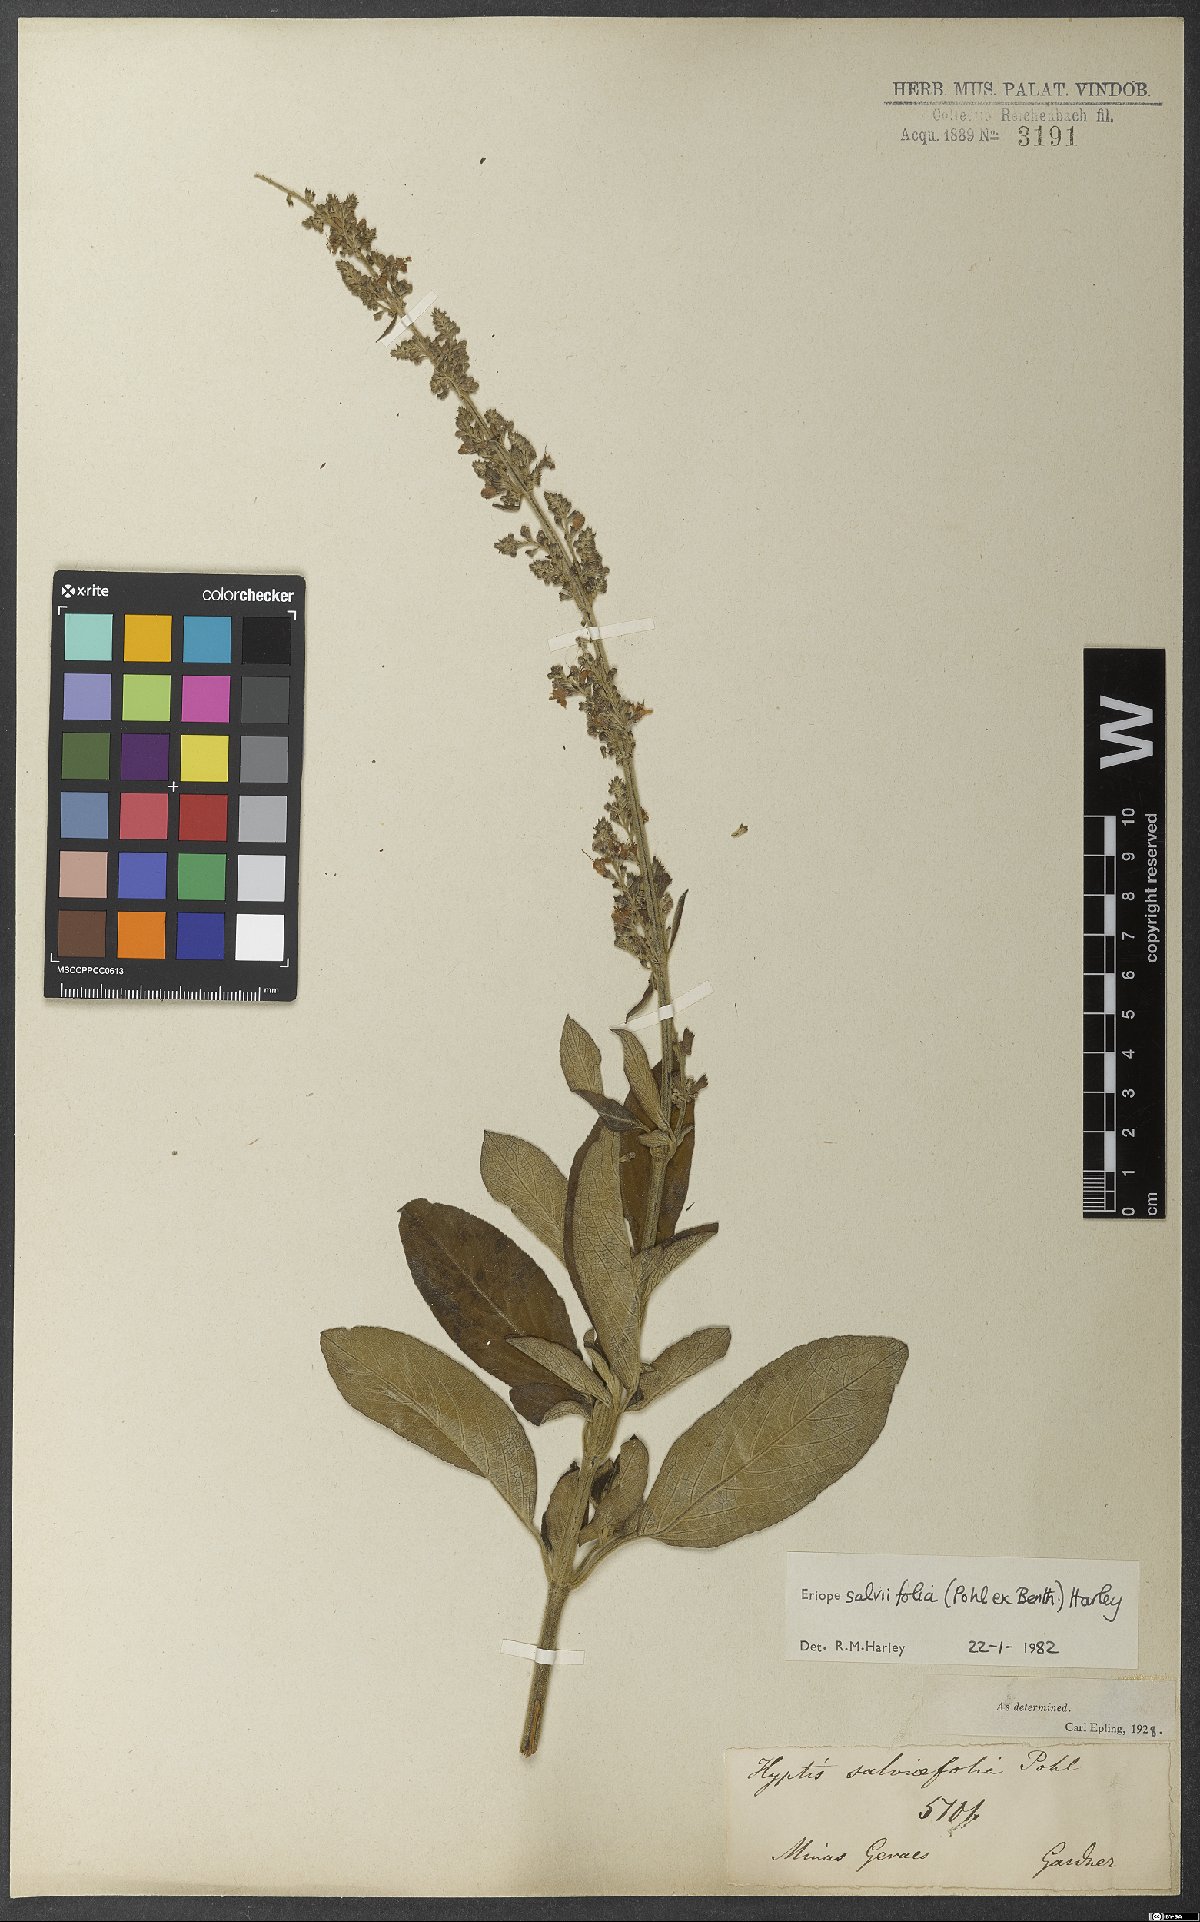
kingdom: Plantae
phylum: Tracheophyta
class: Magnoliopsida
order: Lamiales
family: Lamiaceae
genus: Eriope
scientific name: Eriope salviifolia
